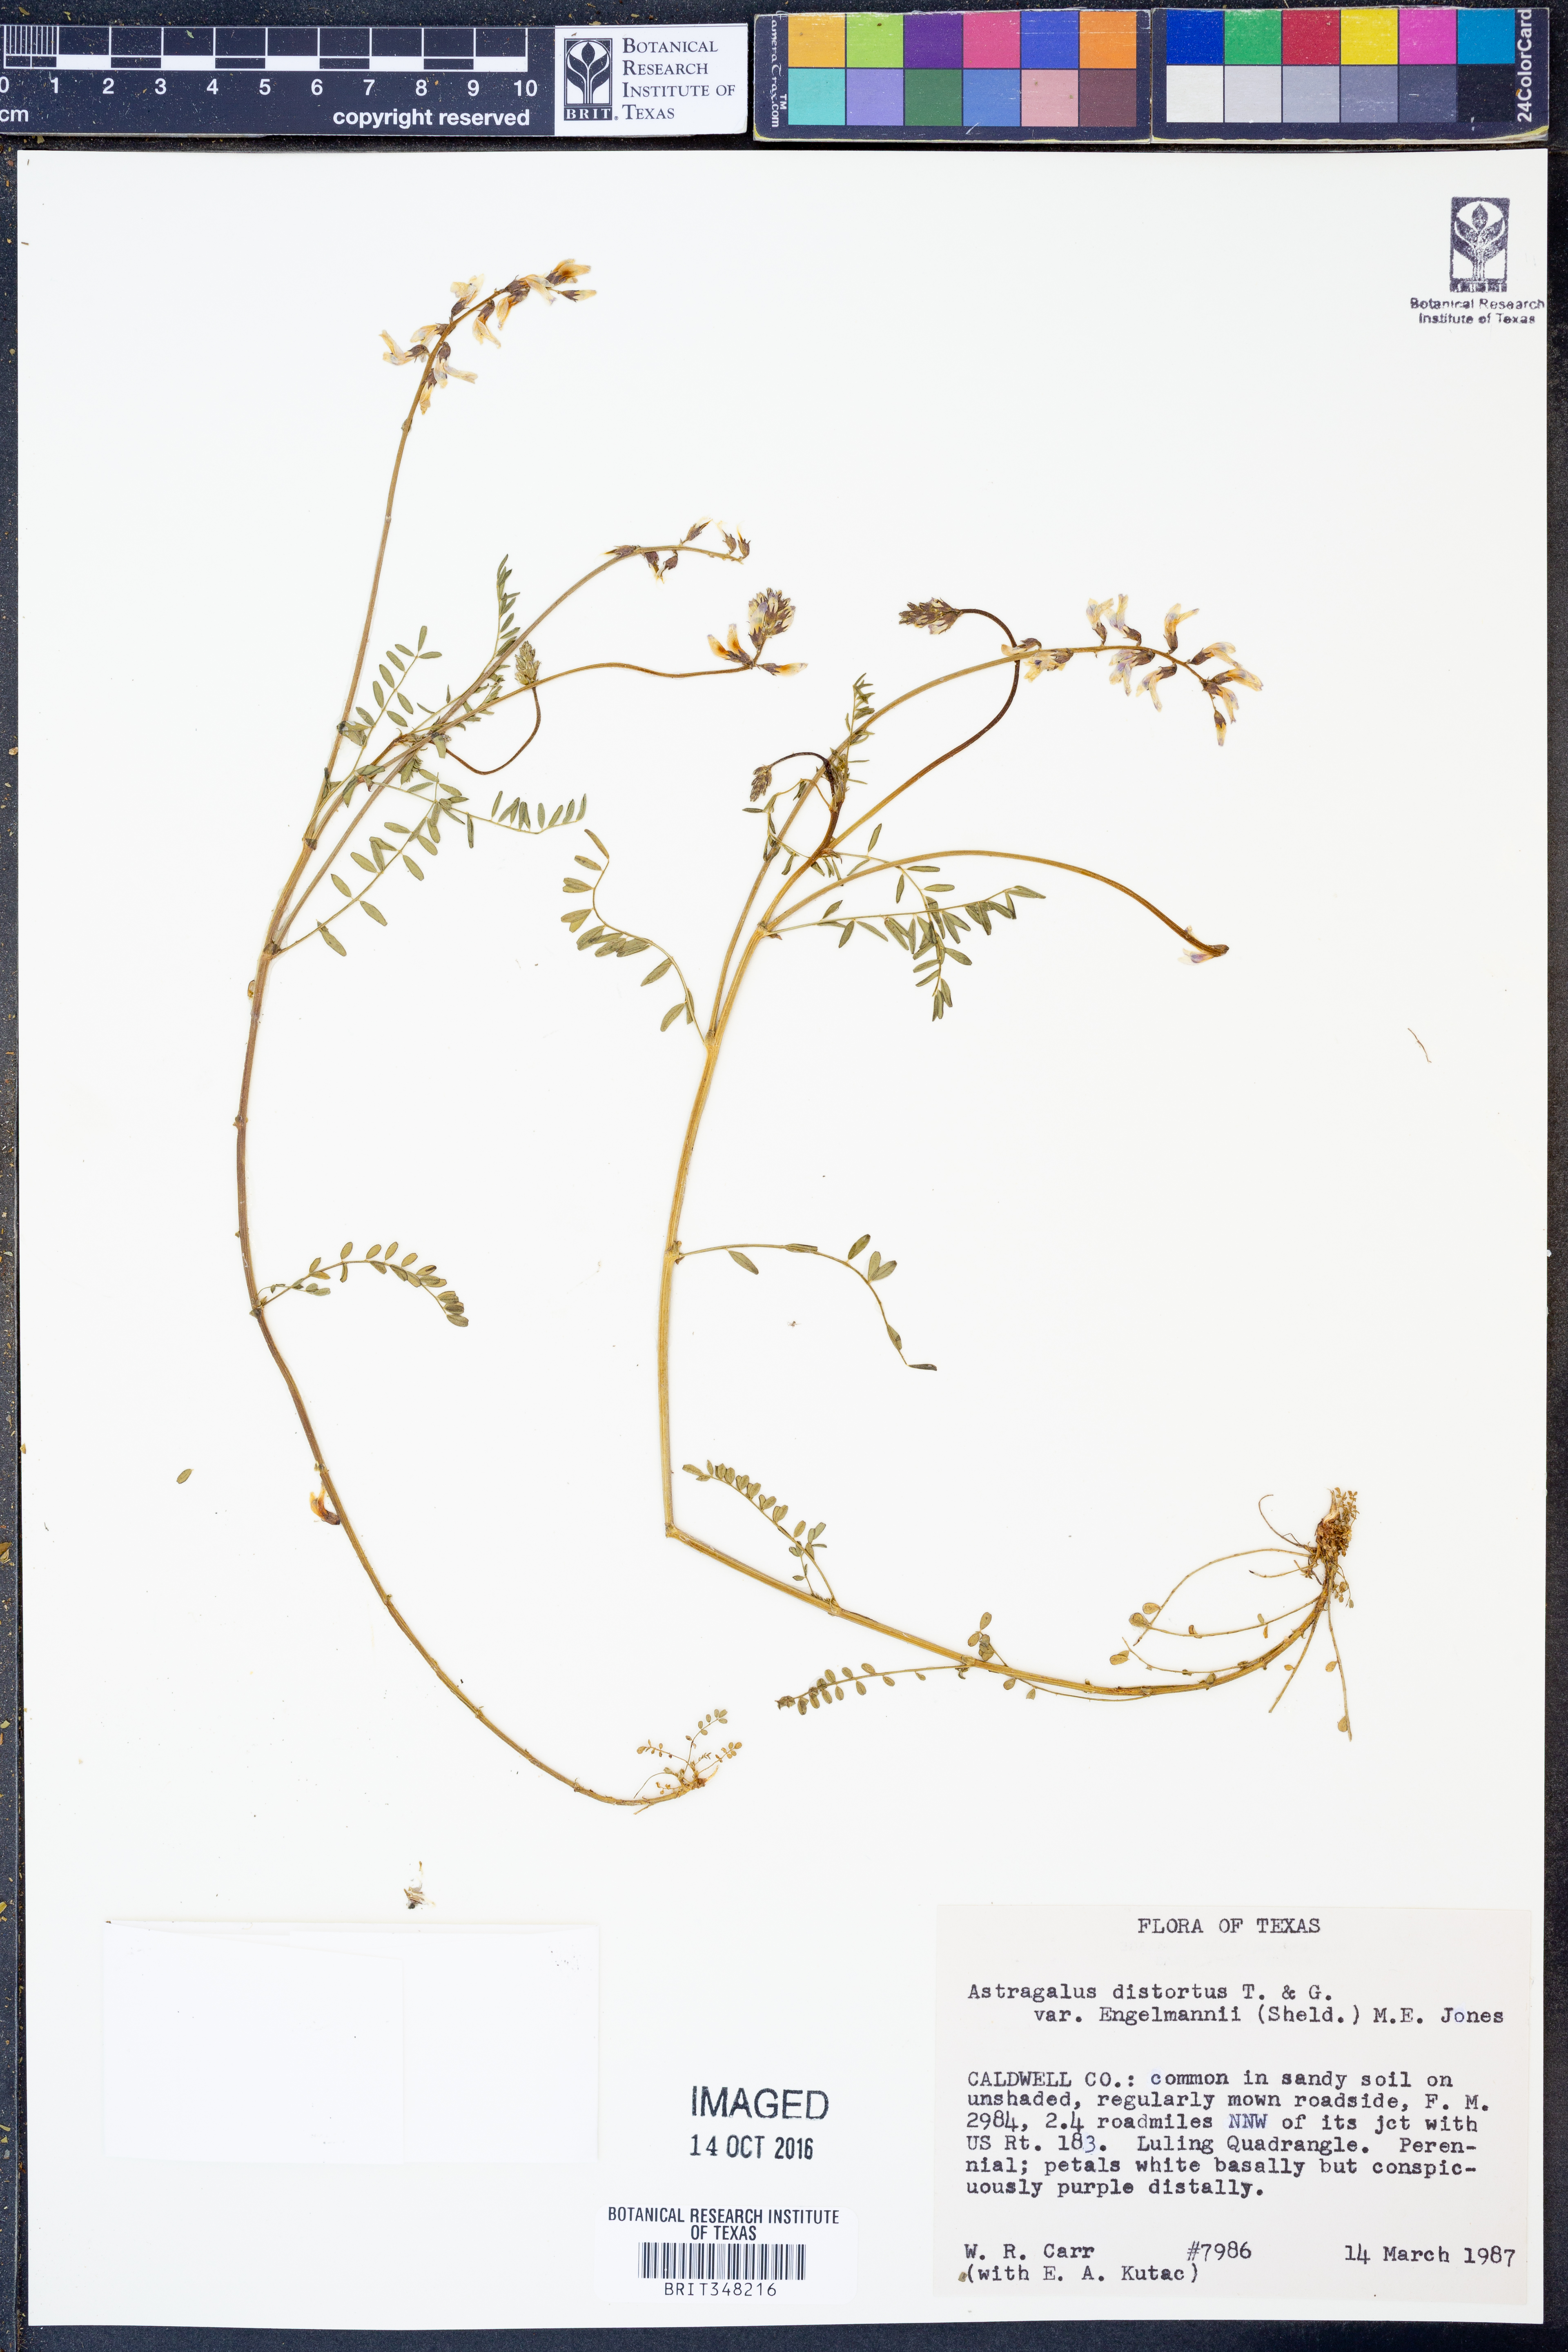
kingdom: Plantae
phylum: Tracheophyta
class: Magnoliopsida
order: Fabales
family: Fabaceae
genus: Astragalus
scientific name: Astragalus distortus
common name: Ozark milk-vetch
